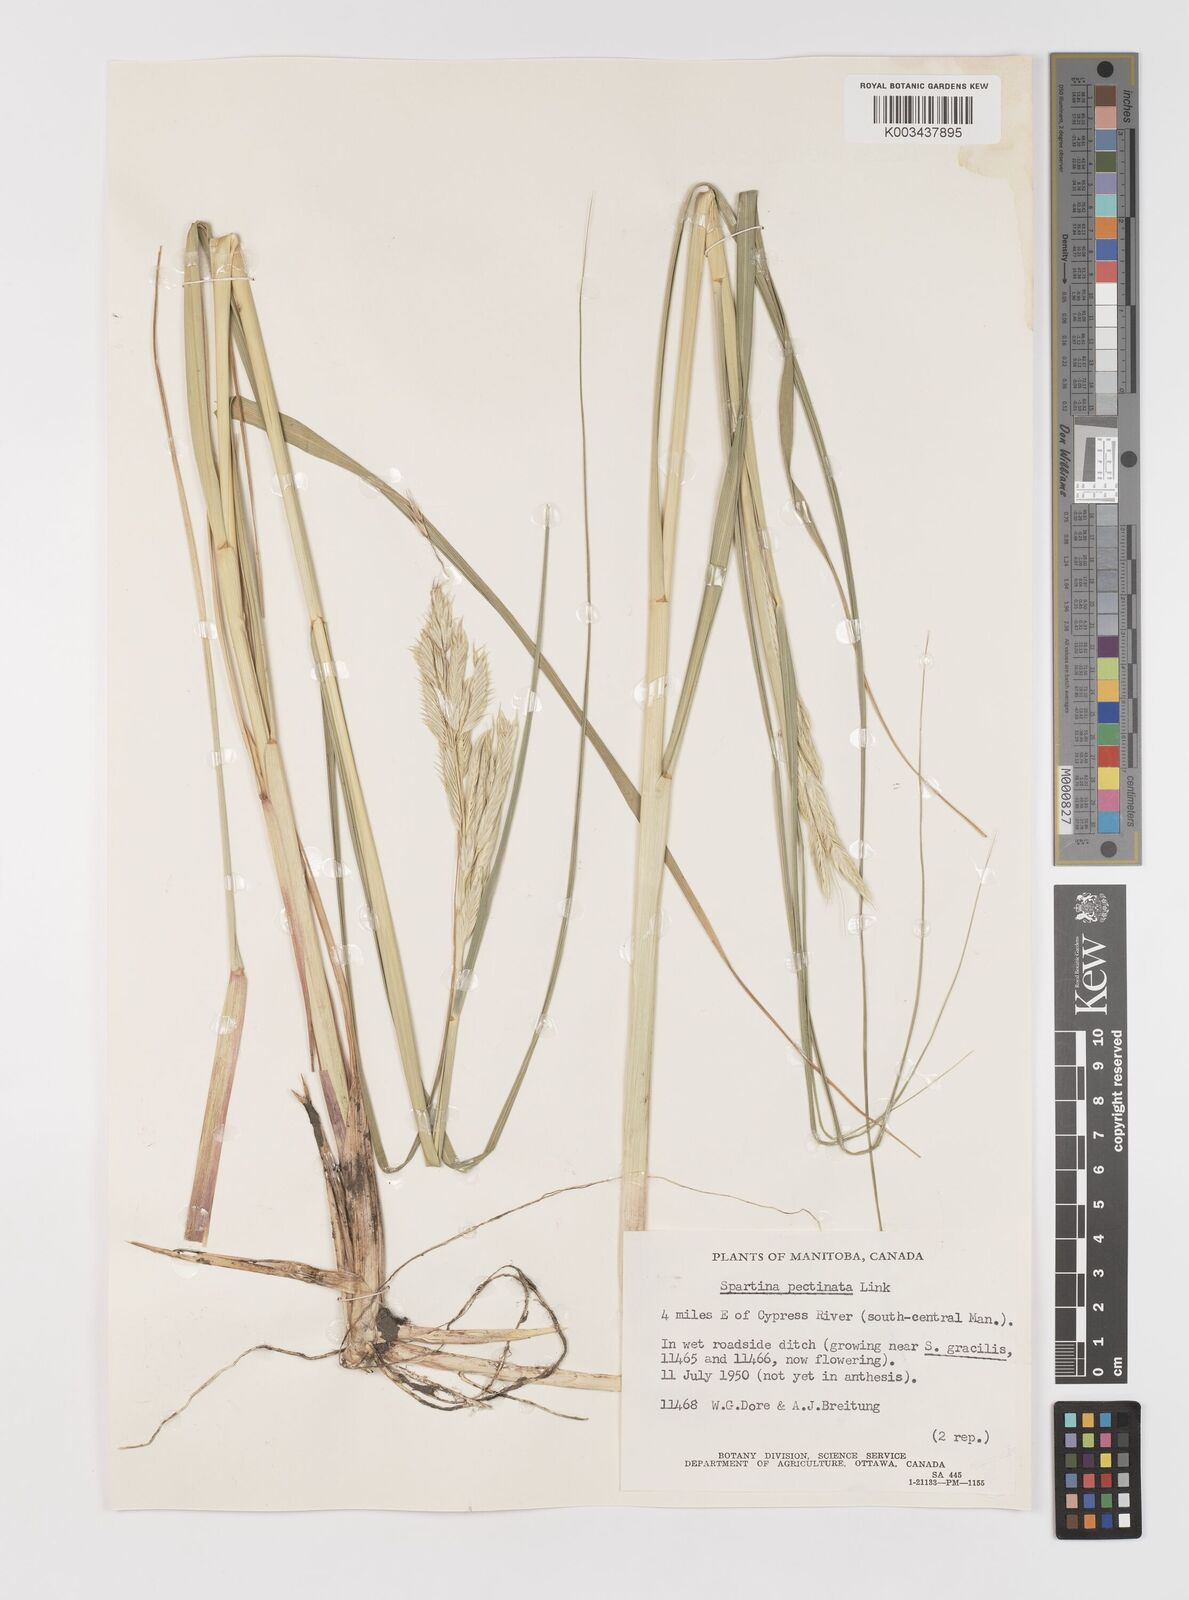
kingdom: Plantae
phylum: Tracheophyta
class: Liliopsida
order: Poales
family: Poaceae
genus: Sporobolus
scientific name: Sporobolus michauxianus
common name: Freshwater cordgrass
